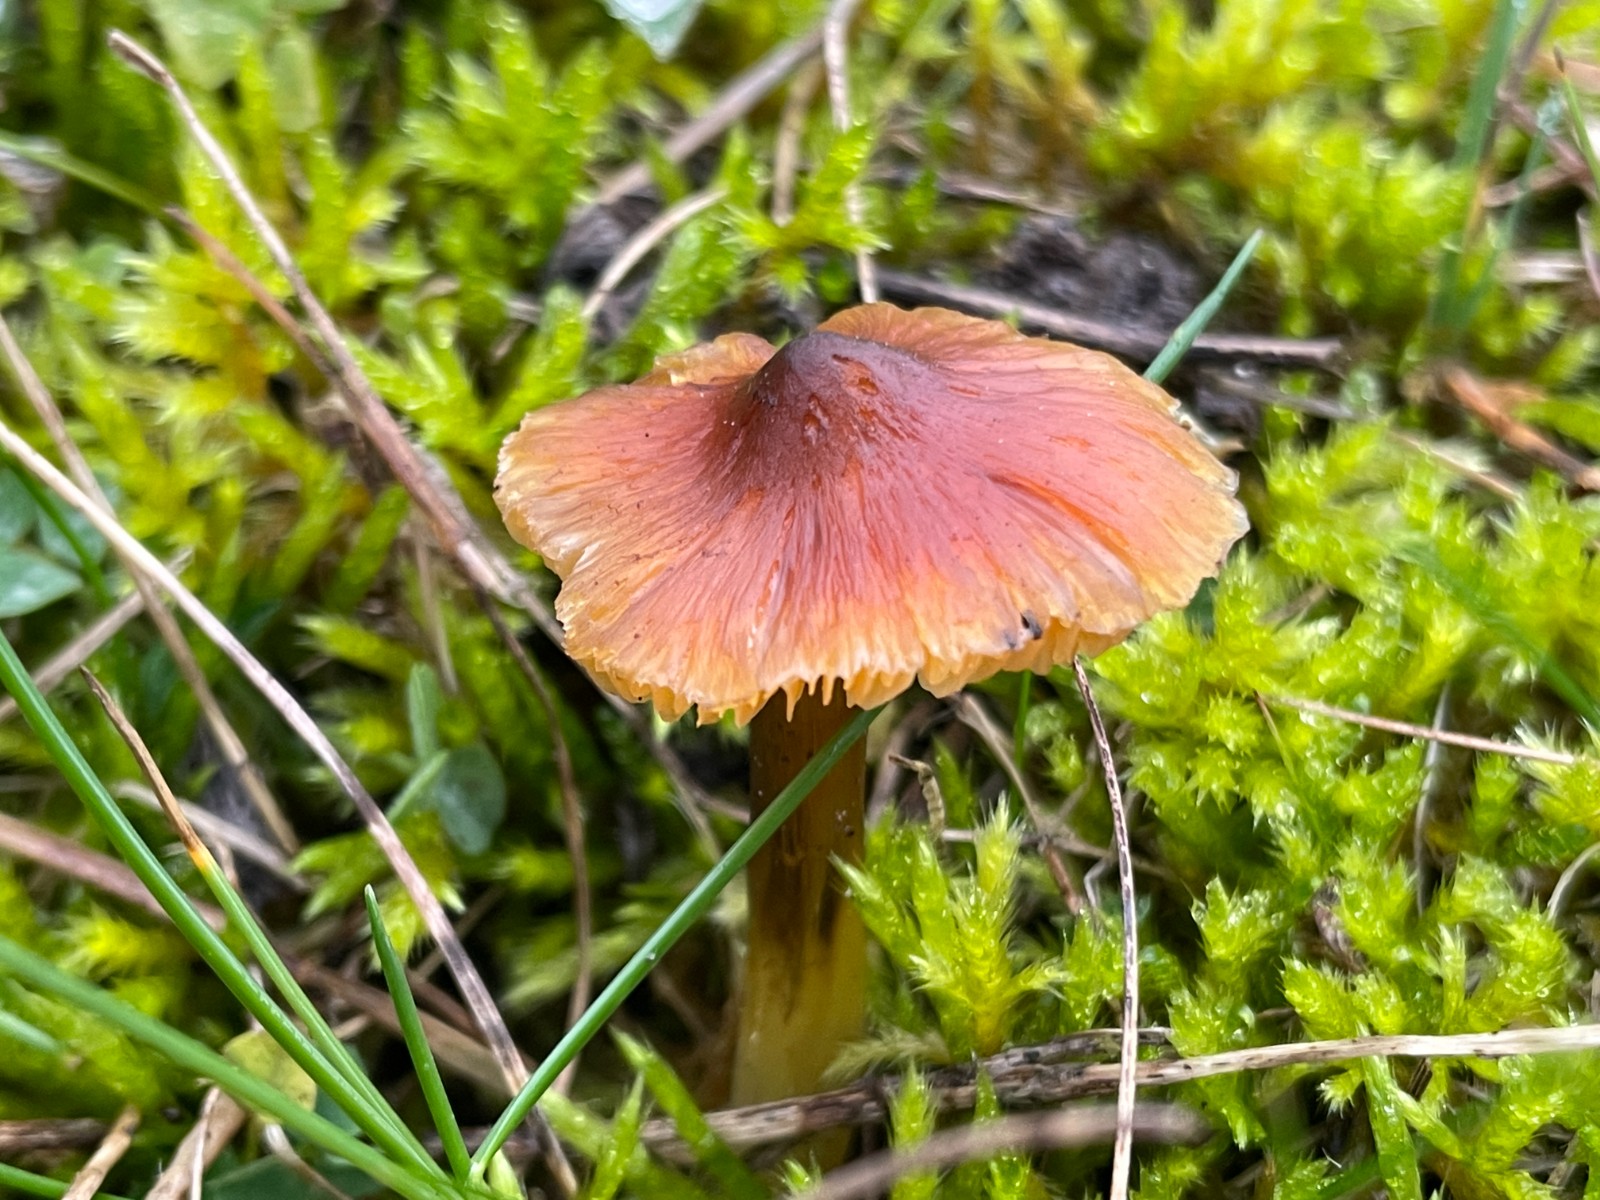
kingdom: Fungi
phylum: Basidiomycota
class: Agaricomycetes
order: Agaricales
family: Hygrophoraceae
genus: Hygrocybe
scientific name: Hygrocybe conica
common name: kegle-vokshat
